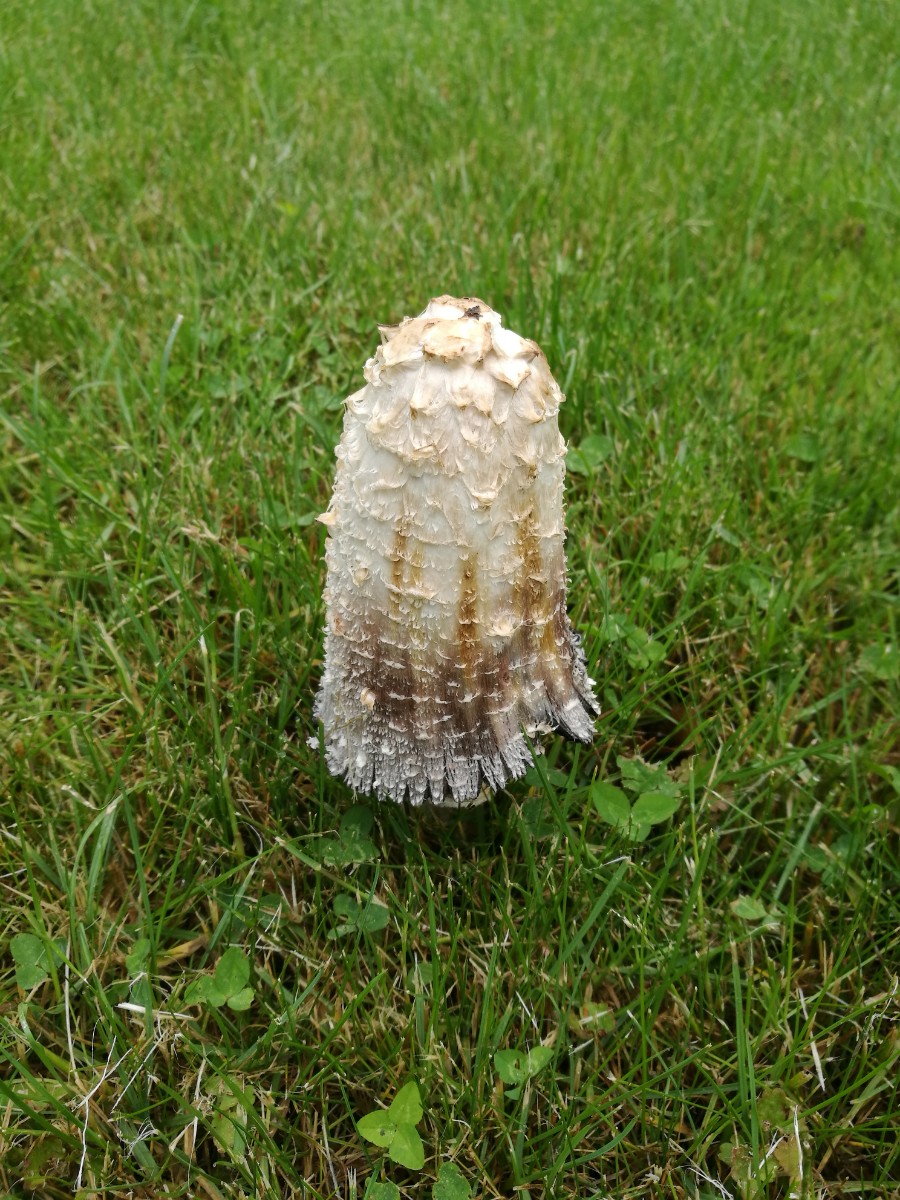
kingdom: Fungi
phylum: Basidiomycota
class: Agaricomycetes
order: Agaricales
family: Agaricaceae
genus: Coprinus
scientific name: Coprinus comatus
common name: stor parykhat
